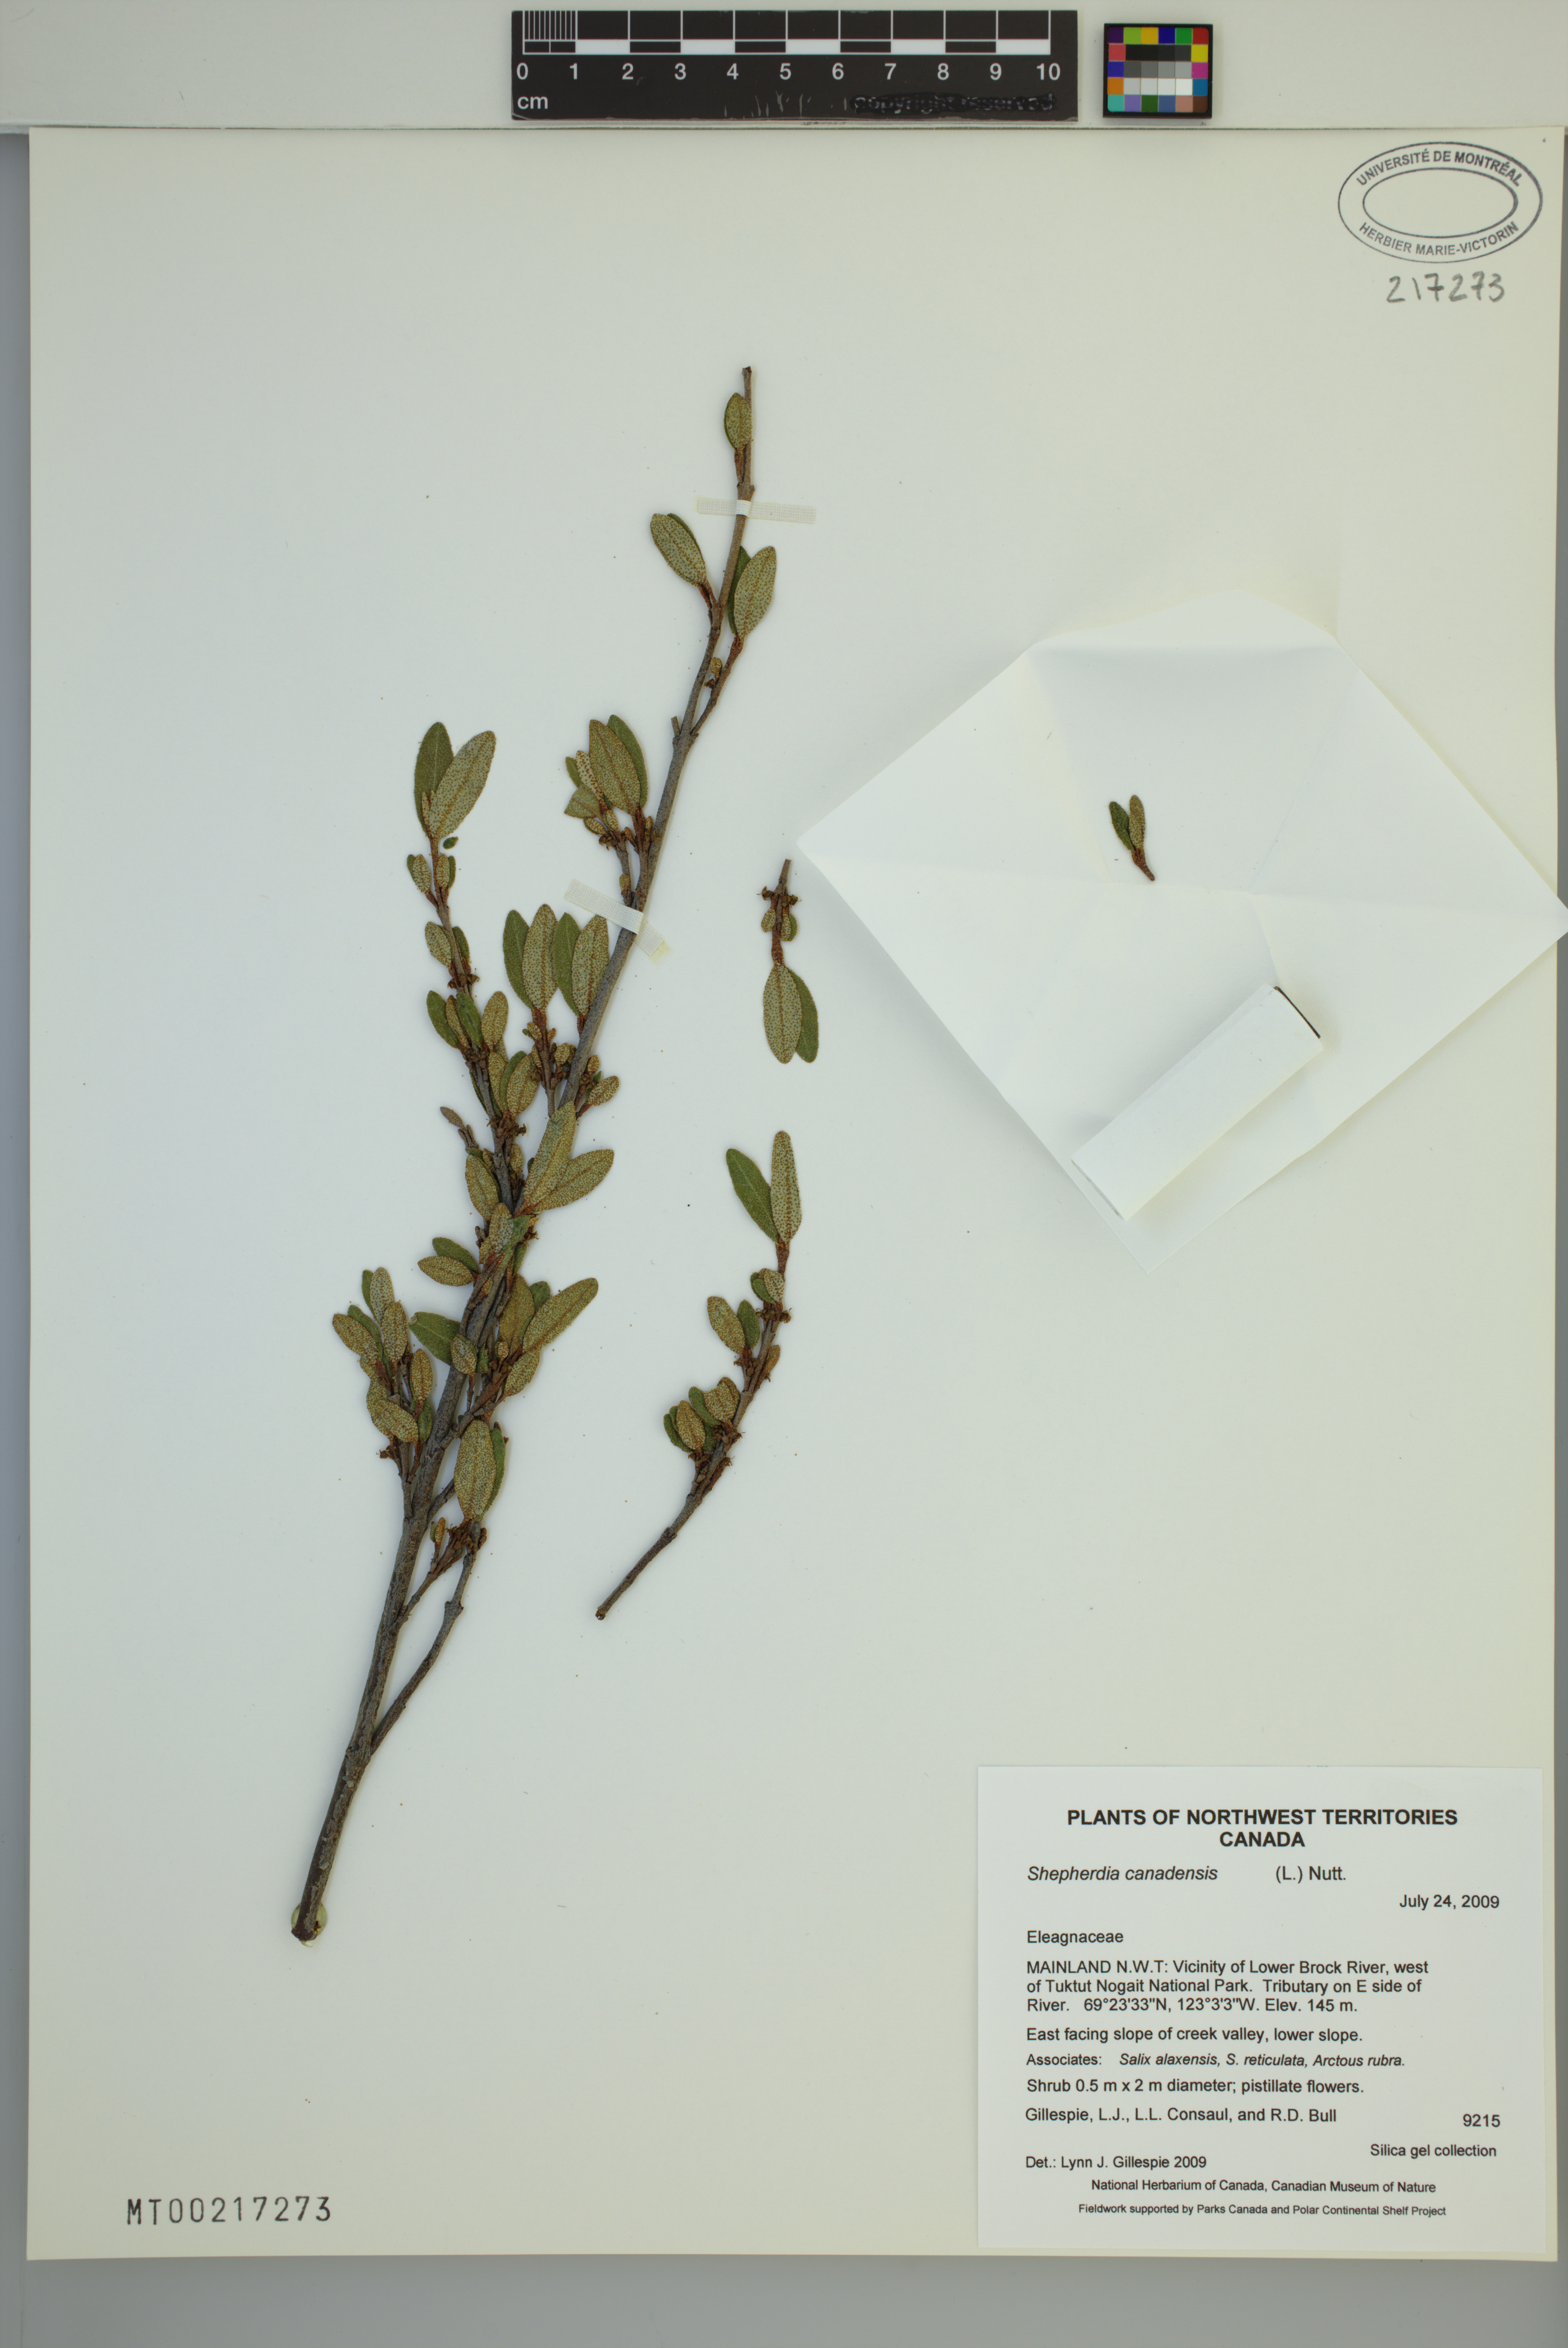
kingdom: Plantae
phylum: Tracheophyta
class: Magnoliopsida
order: Rosales
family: Elaeagnaceae
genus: Shepherdia
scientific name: Shepherdia canadensis
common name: Soapberry
